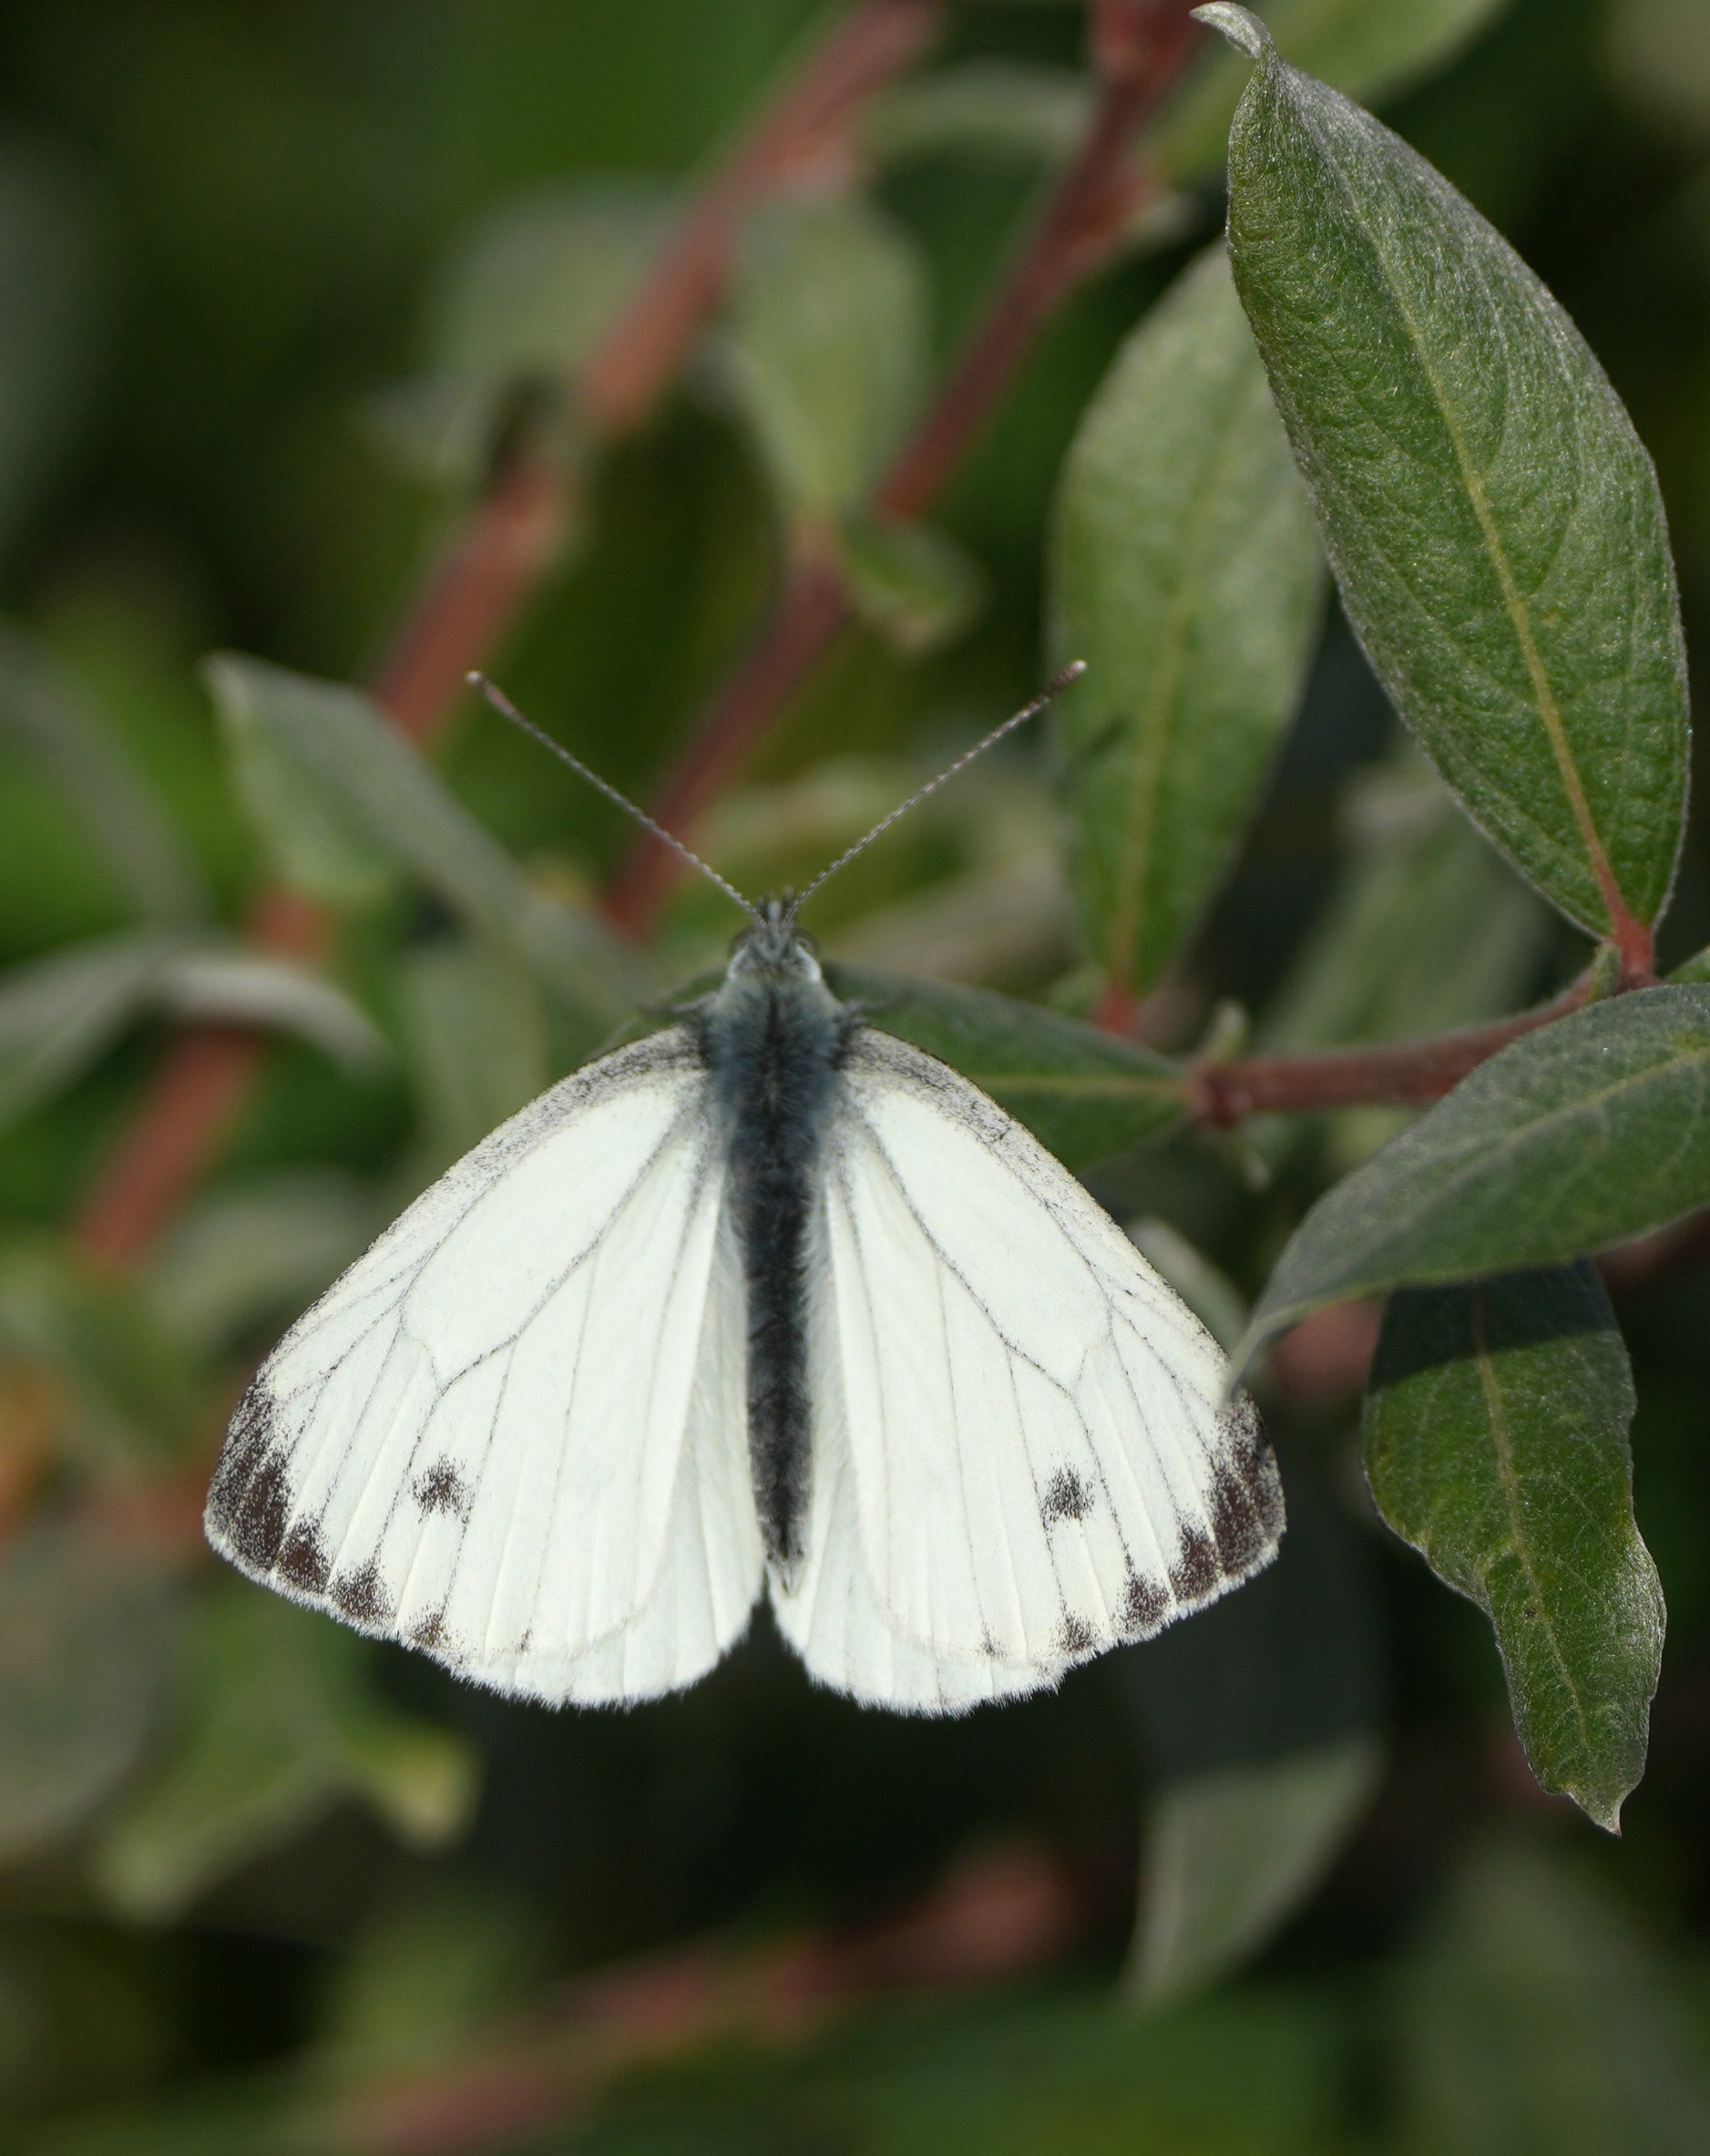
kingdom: Animalia
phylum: Arthropoda
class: Insecta
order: Lepidoptera
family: Pieridae
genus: Pieris
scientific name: Pieris napi
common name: Grønåret kålsommerfugl
